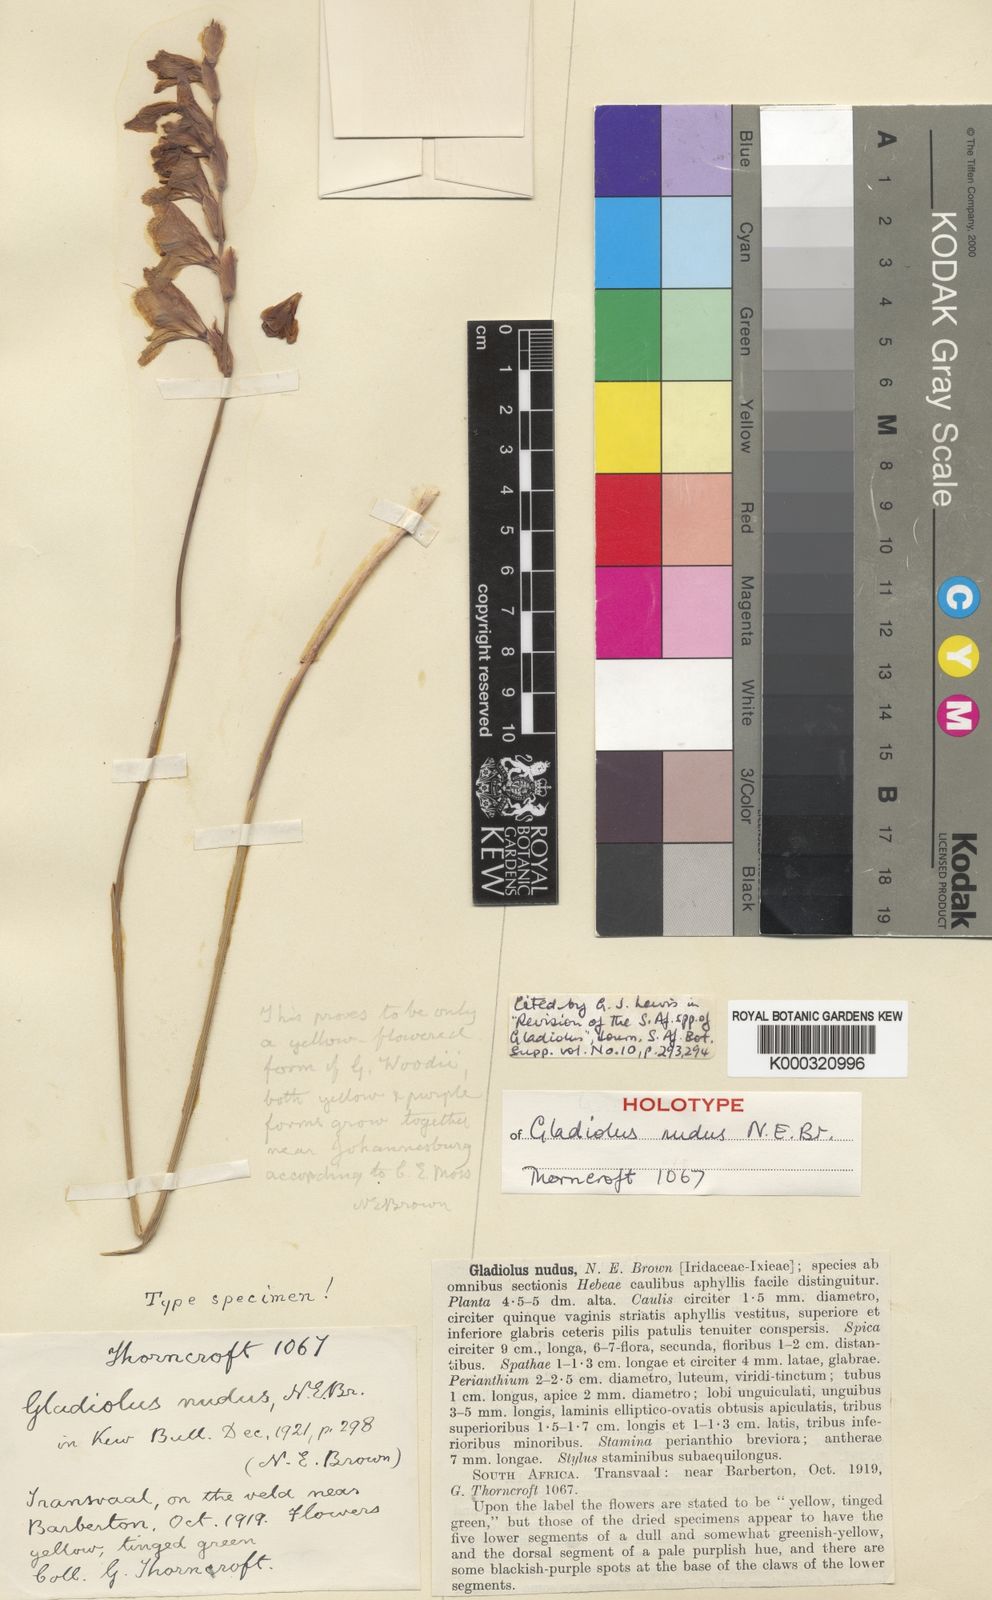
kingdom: Plantae
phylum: Tracheophyta
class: Liliopsida
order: Asparagales
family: Iridaceae
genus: Gladiolus
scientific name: Gladiolus woodii
